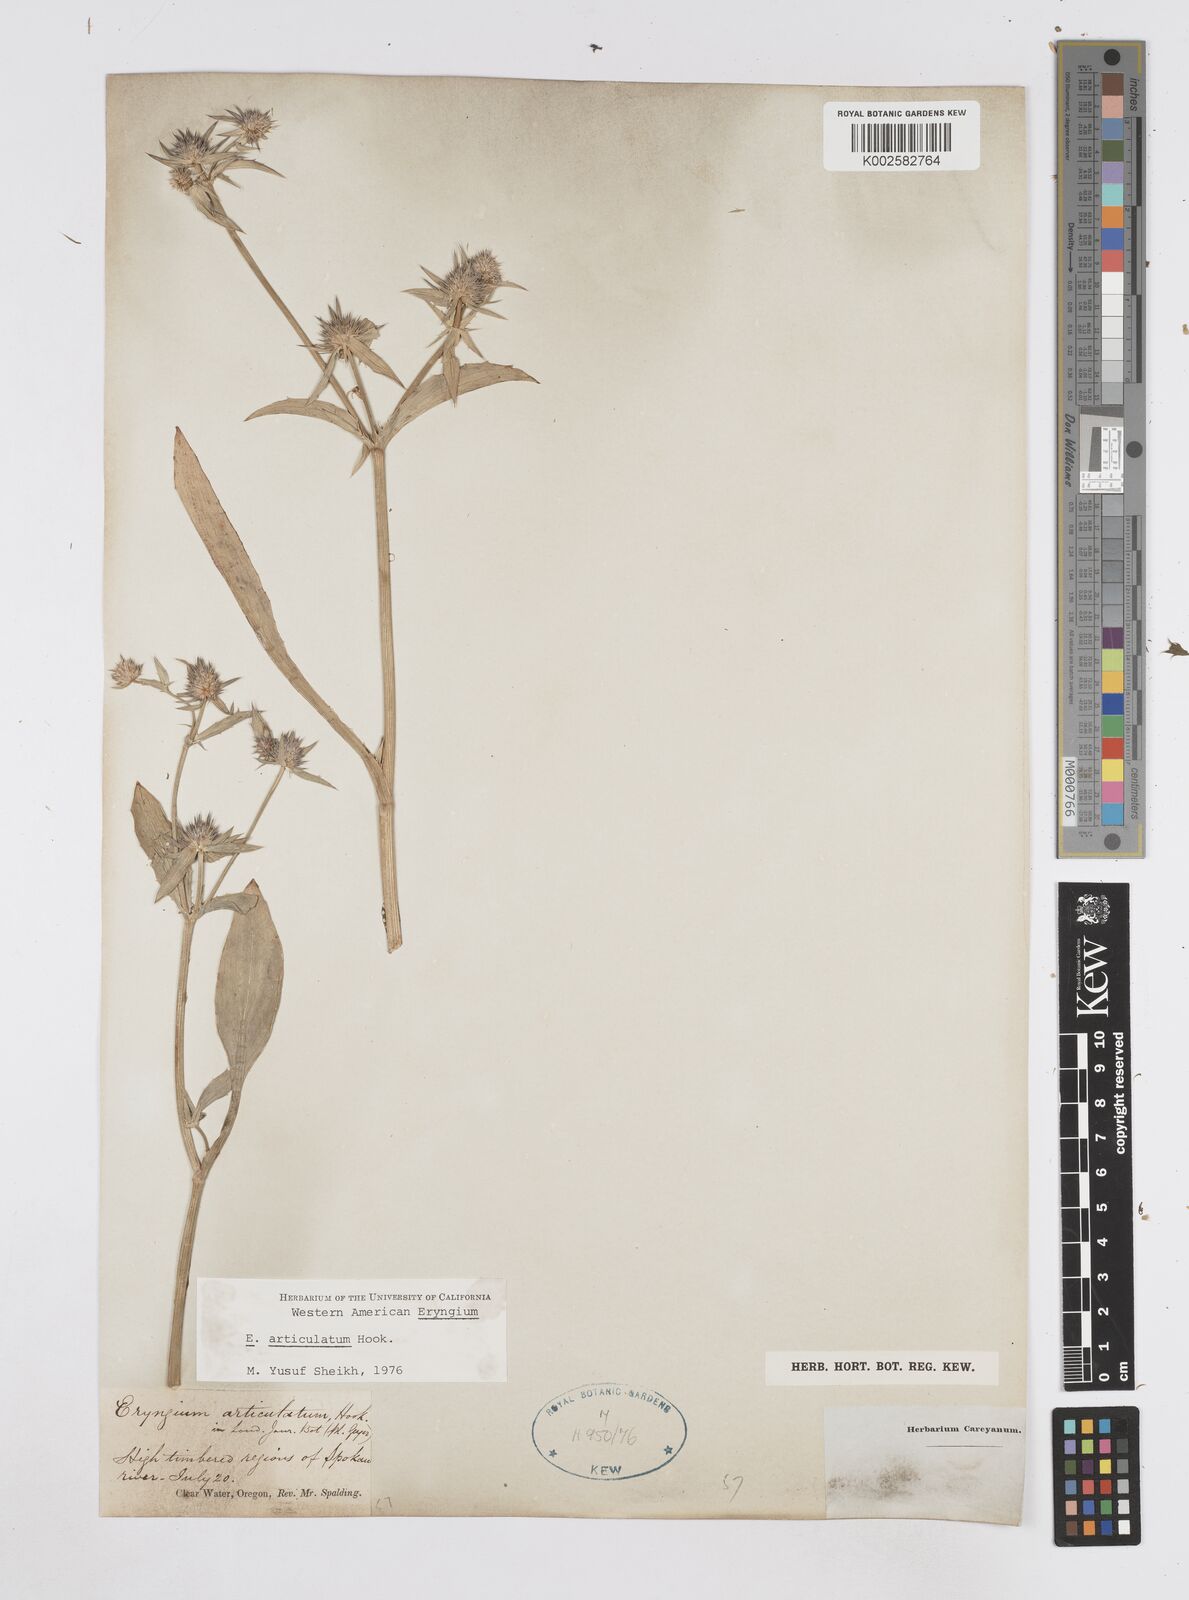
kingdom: Plantae
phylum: Tracheophyta
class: Magnoliopsida
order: Apiales
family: Apiaceae
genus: Eryngium
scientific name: Eryngium articulatum
